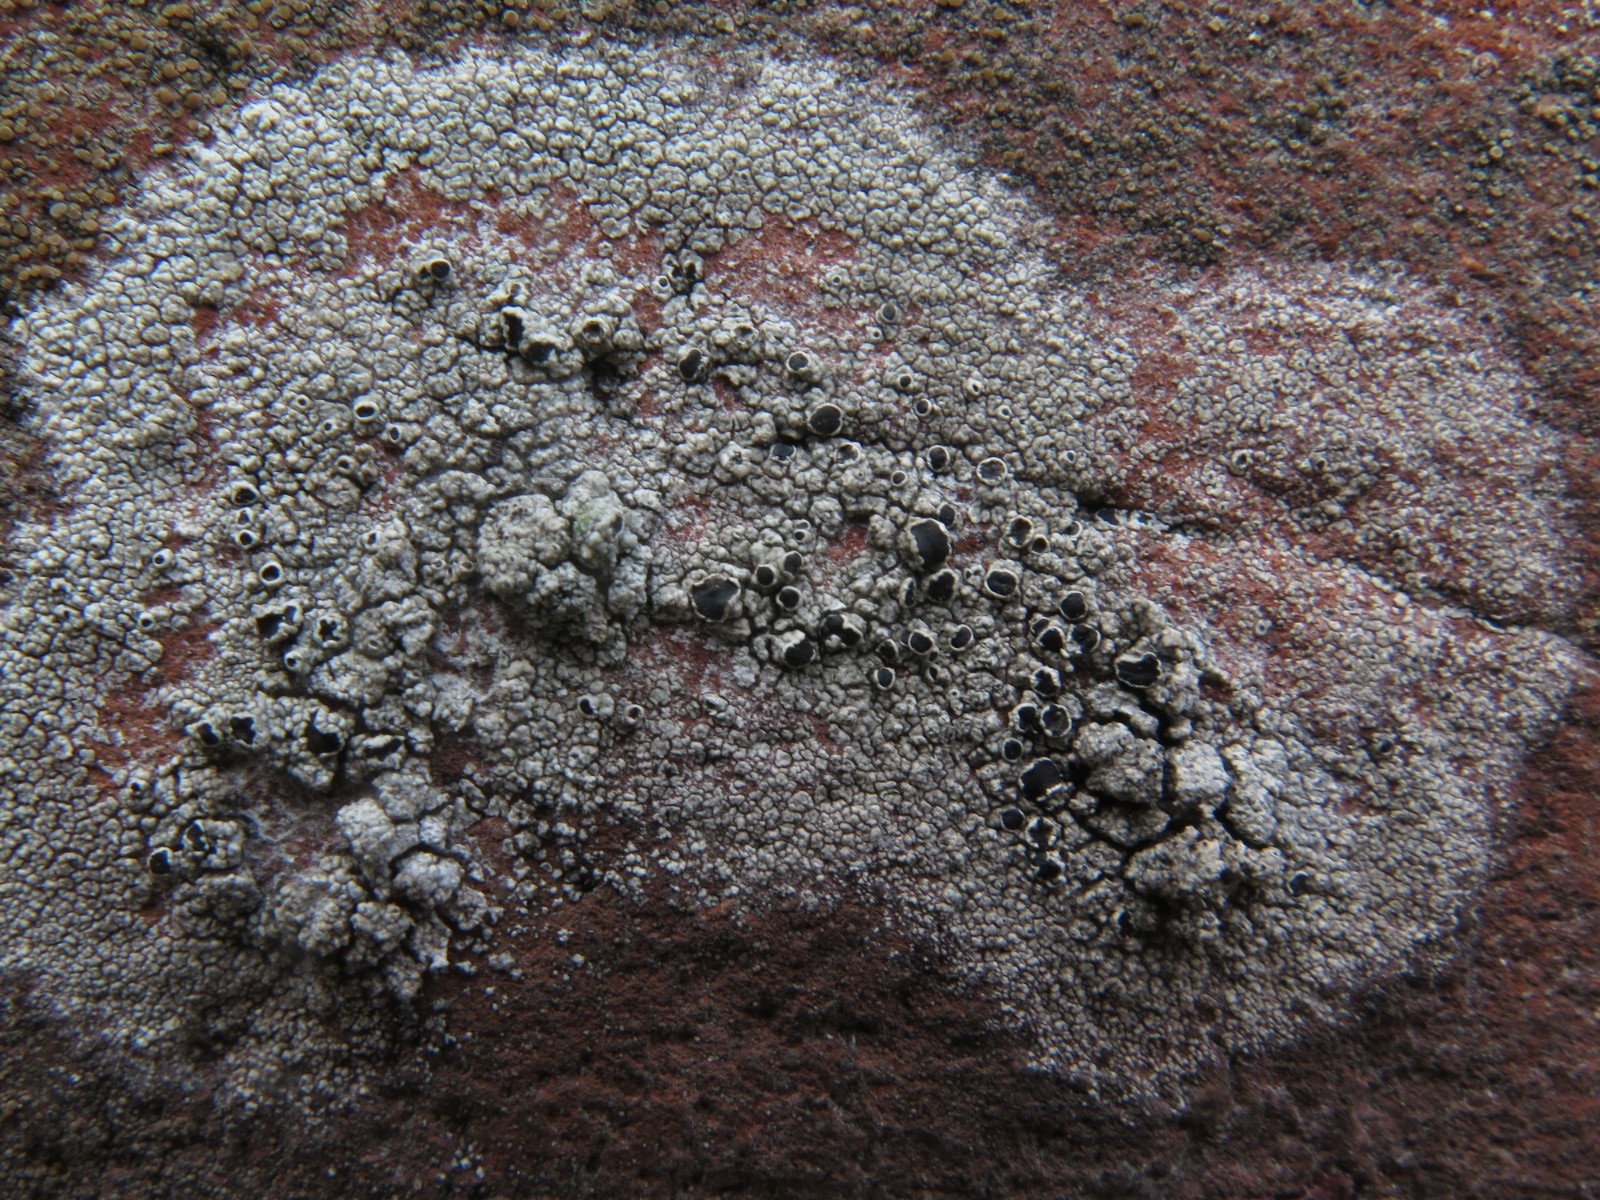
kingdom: Fungi
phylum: Ascomycota
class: Lecanoromycetes
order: Lecanorales
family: Tephromelataceae
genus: Tephromela
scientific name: Tephromela atra
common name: sortfrugtet kantskivelav
